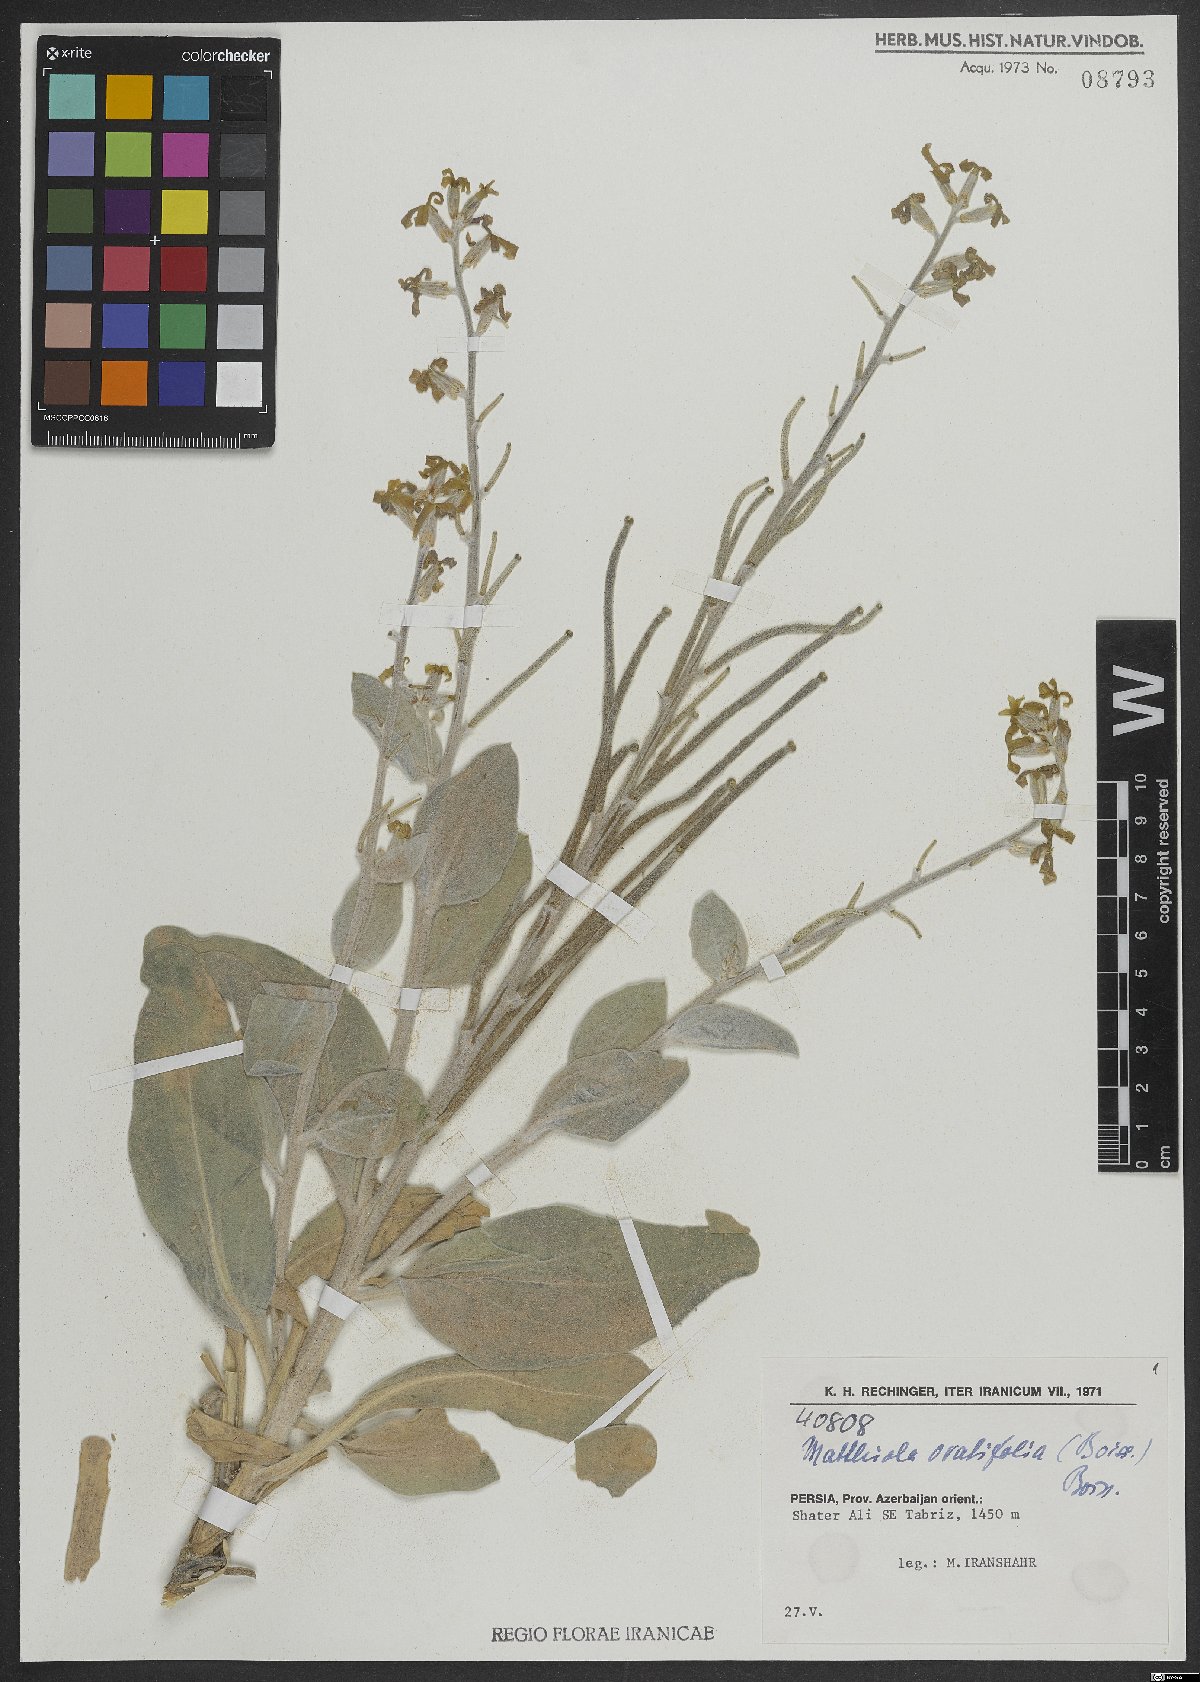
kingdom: Plantae
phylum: Tracheophyta
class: Magnoliopsida
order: Brassicales
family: Brassicaceae
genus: Matthiola
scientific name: Matthiola ovatifolia
